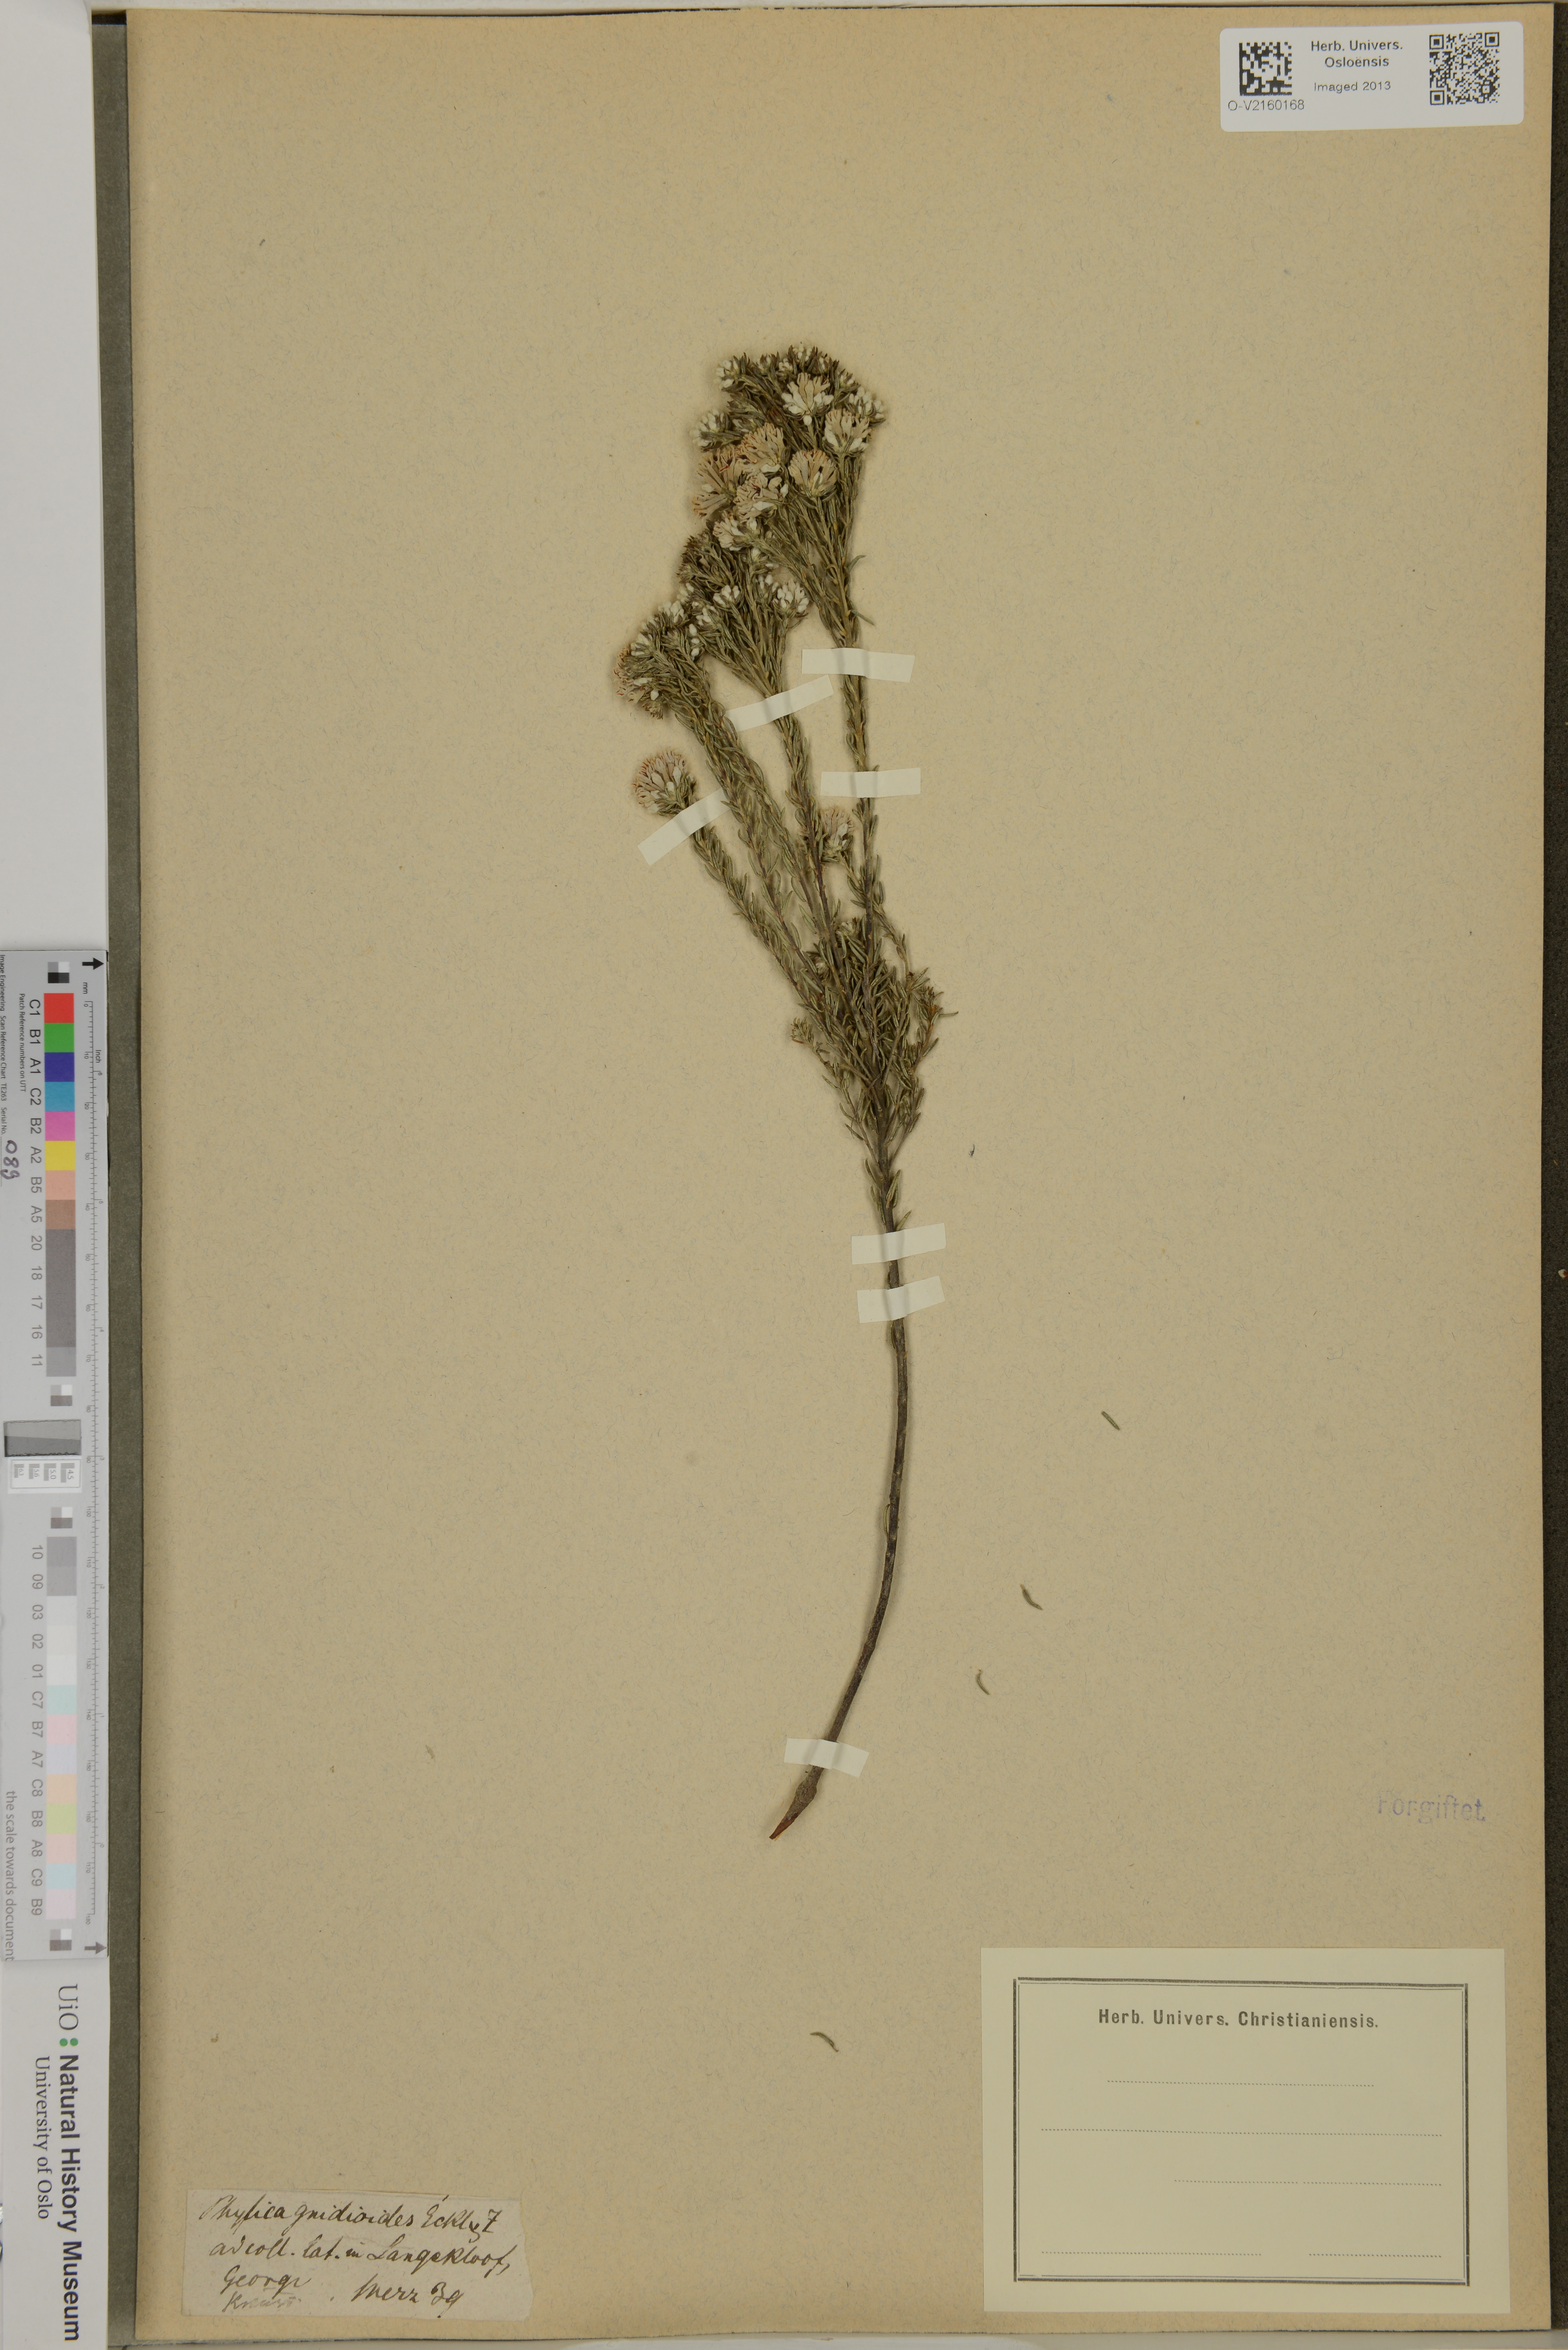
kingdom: Plantae
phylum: Tracheophyta
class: Magnoliopsida
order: Rosales
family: Rhamnaceae
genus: Phylica
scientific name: Phylica gnidioides
